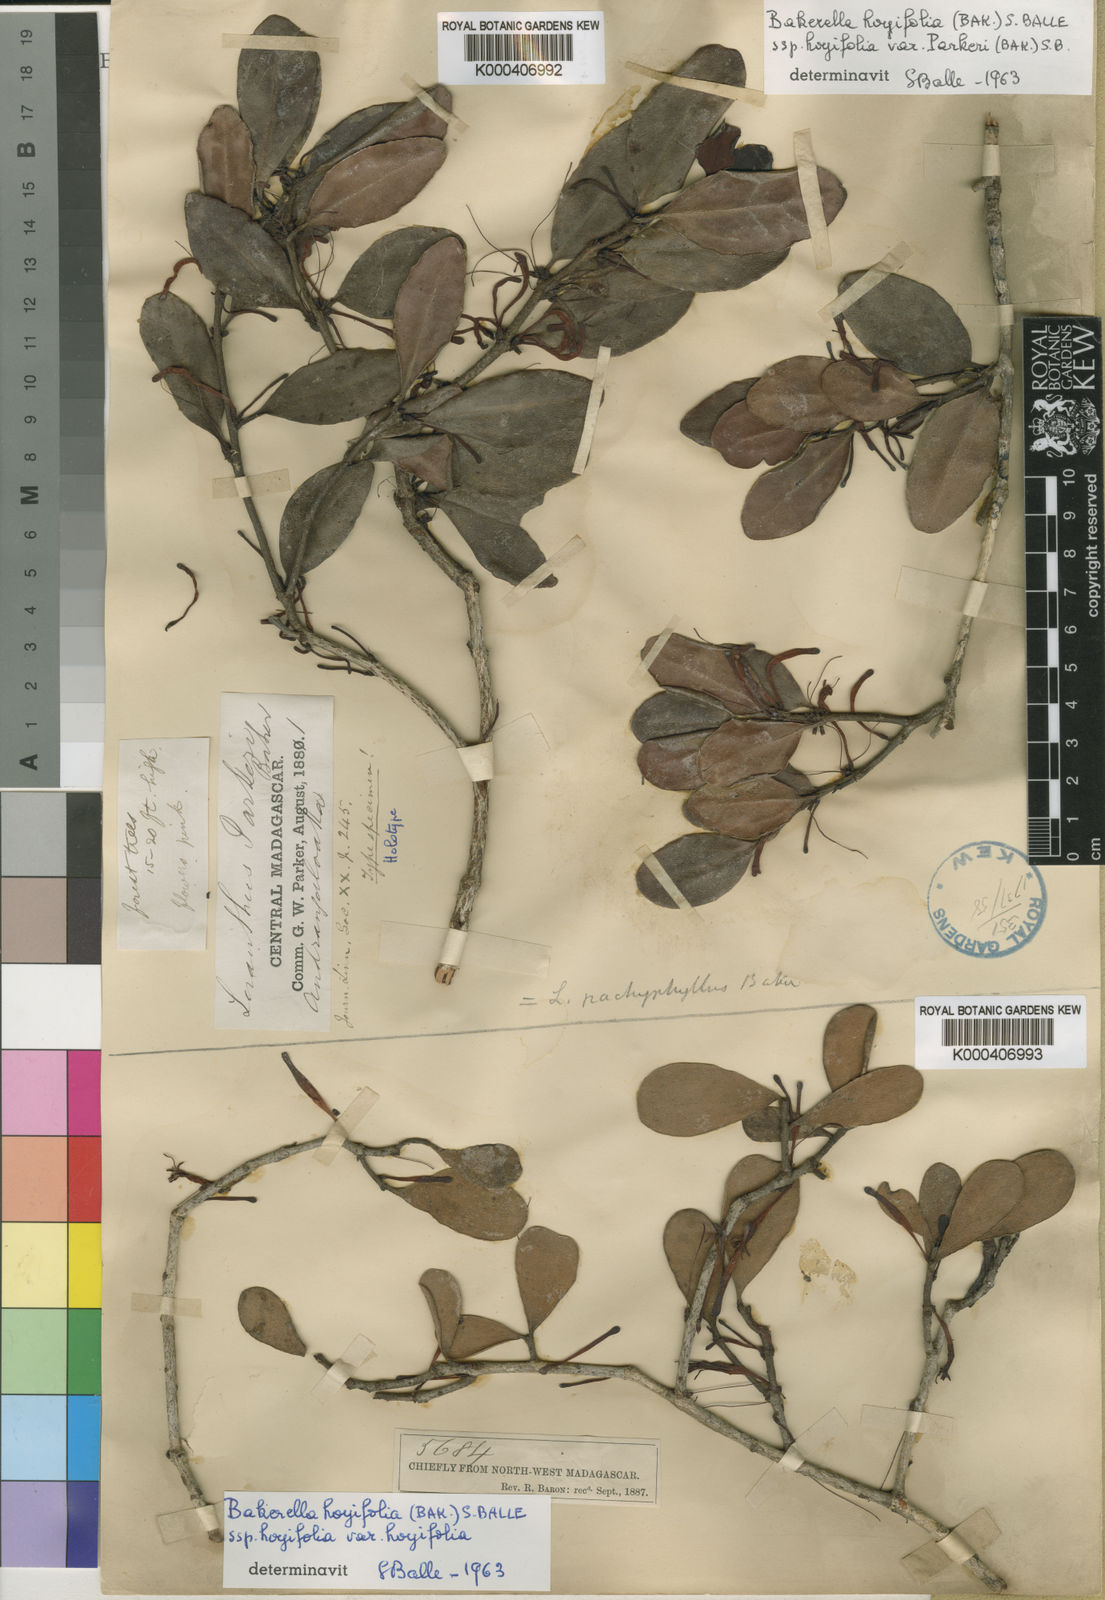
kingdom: Plantae
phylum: Tracheophyta
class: Magnoliopsida
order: Santalales
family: Loranthaceae
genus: Bakerella
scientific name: Bakerella hoyifolia
